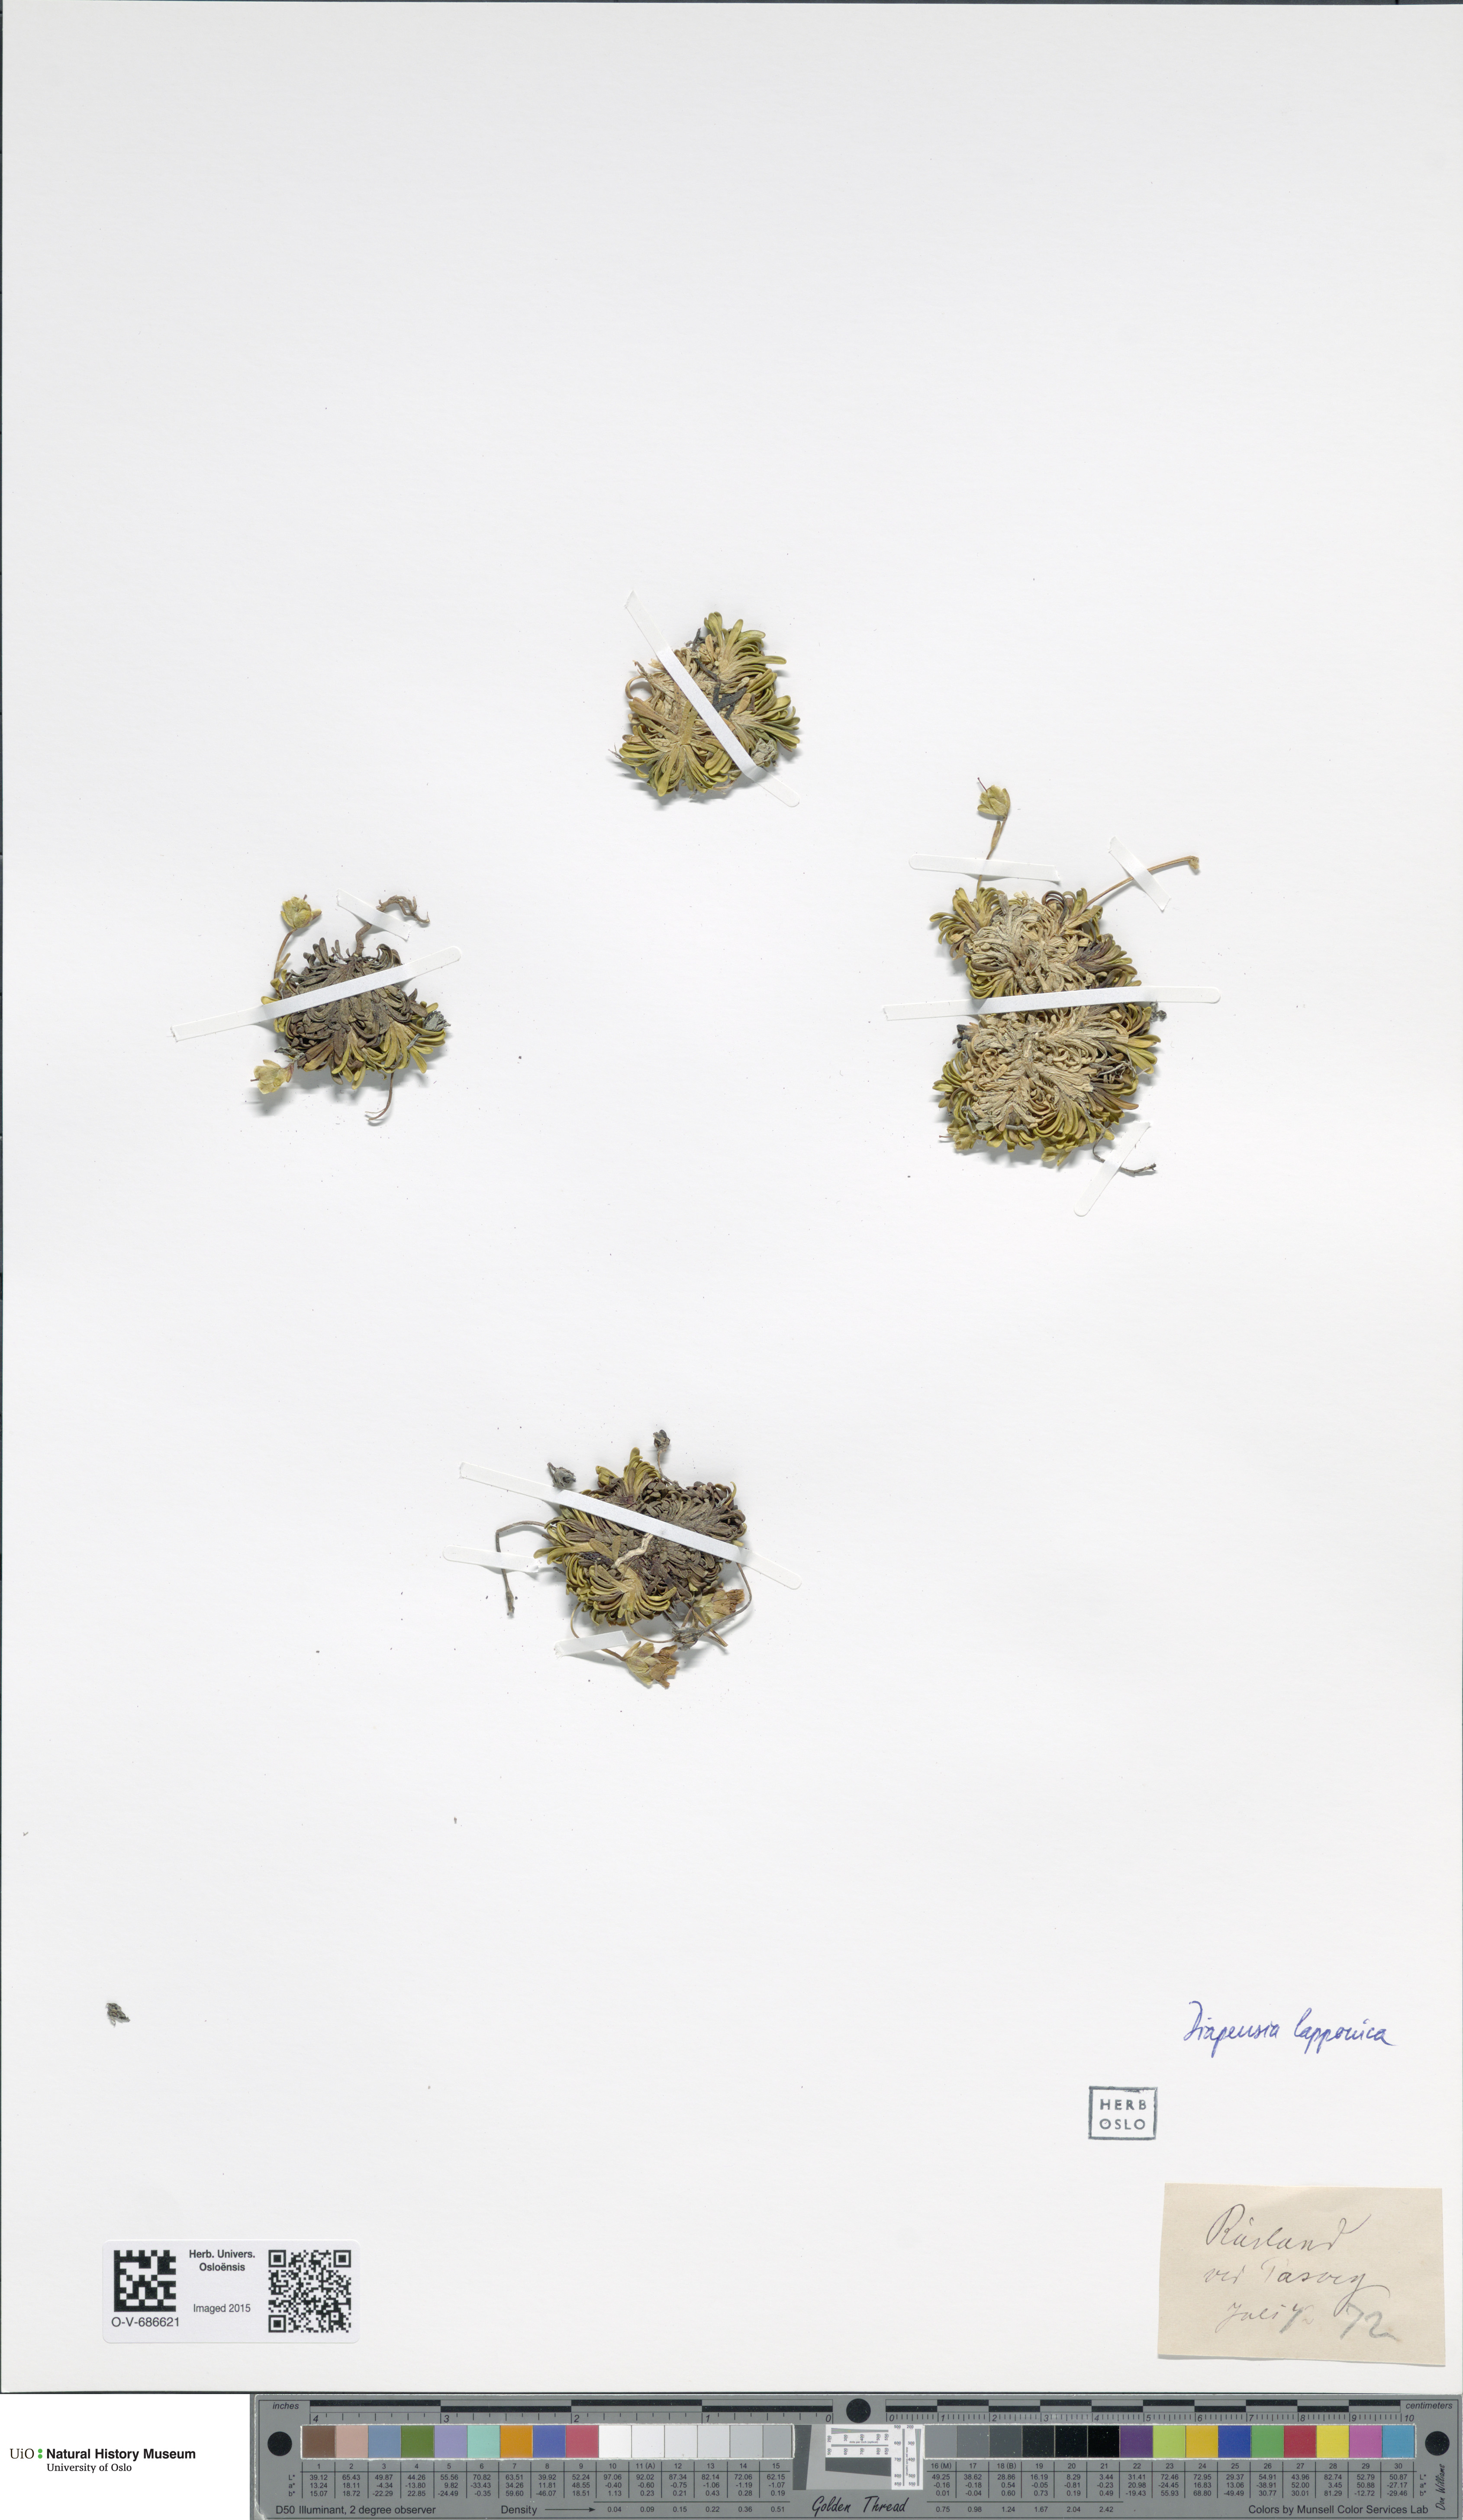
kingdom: Plantae
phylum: Tracheophyta
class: Magnoliopsida
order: Ericales
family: Diapensiaceae
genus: Diapensia
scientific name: Diapensia lapponica
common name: Diapensia
